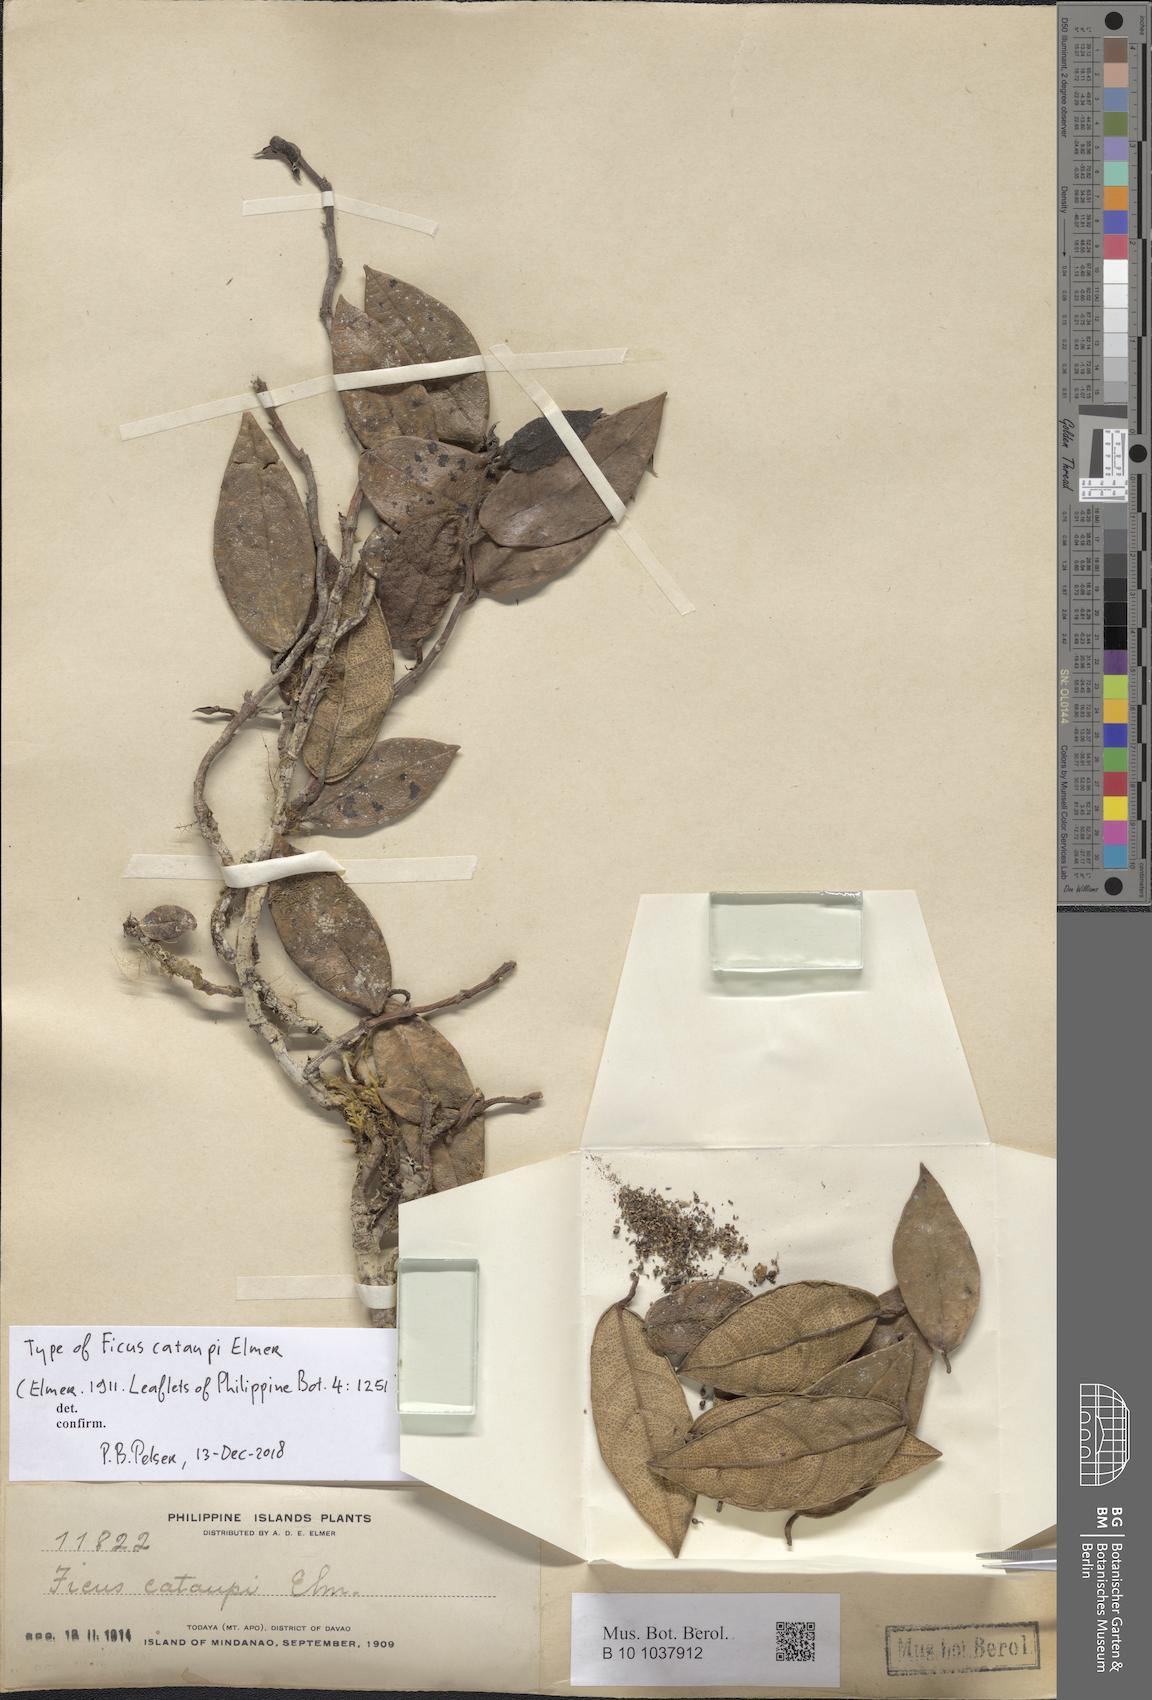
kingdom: Plantae
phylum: Tracheophyta
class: Magnoliopsida
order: Rosales
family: Moraceae
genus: Ficus
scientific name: Ficus cataupi
